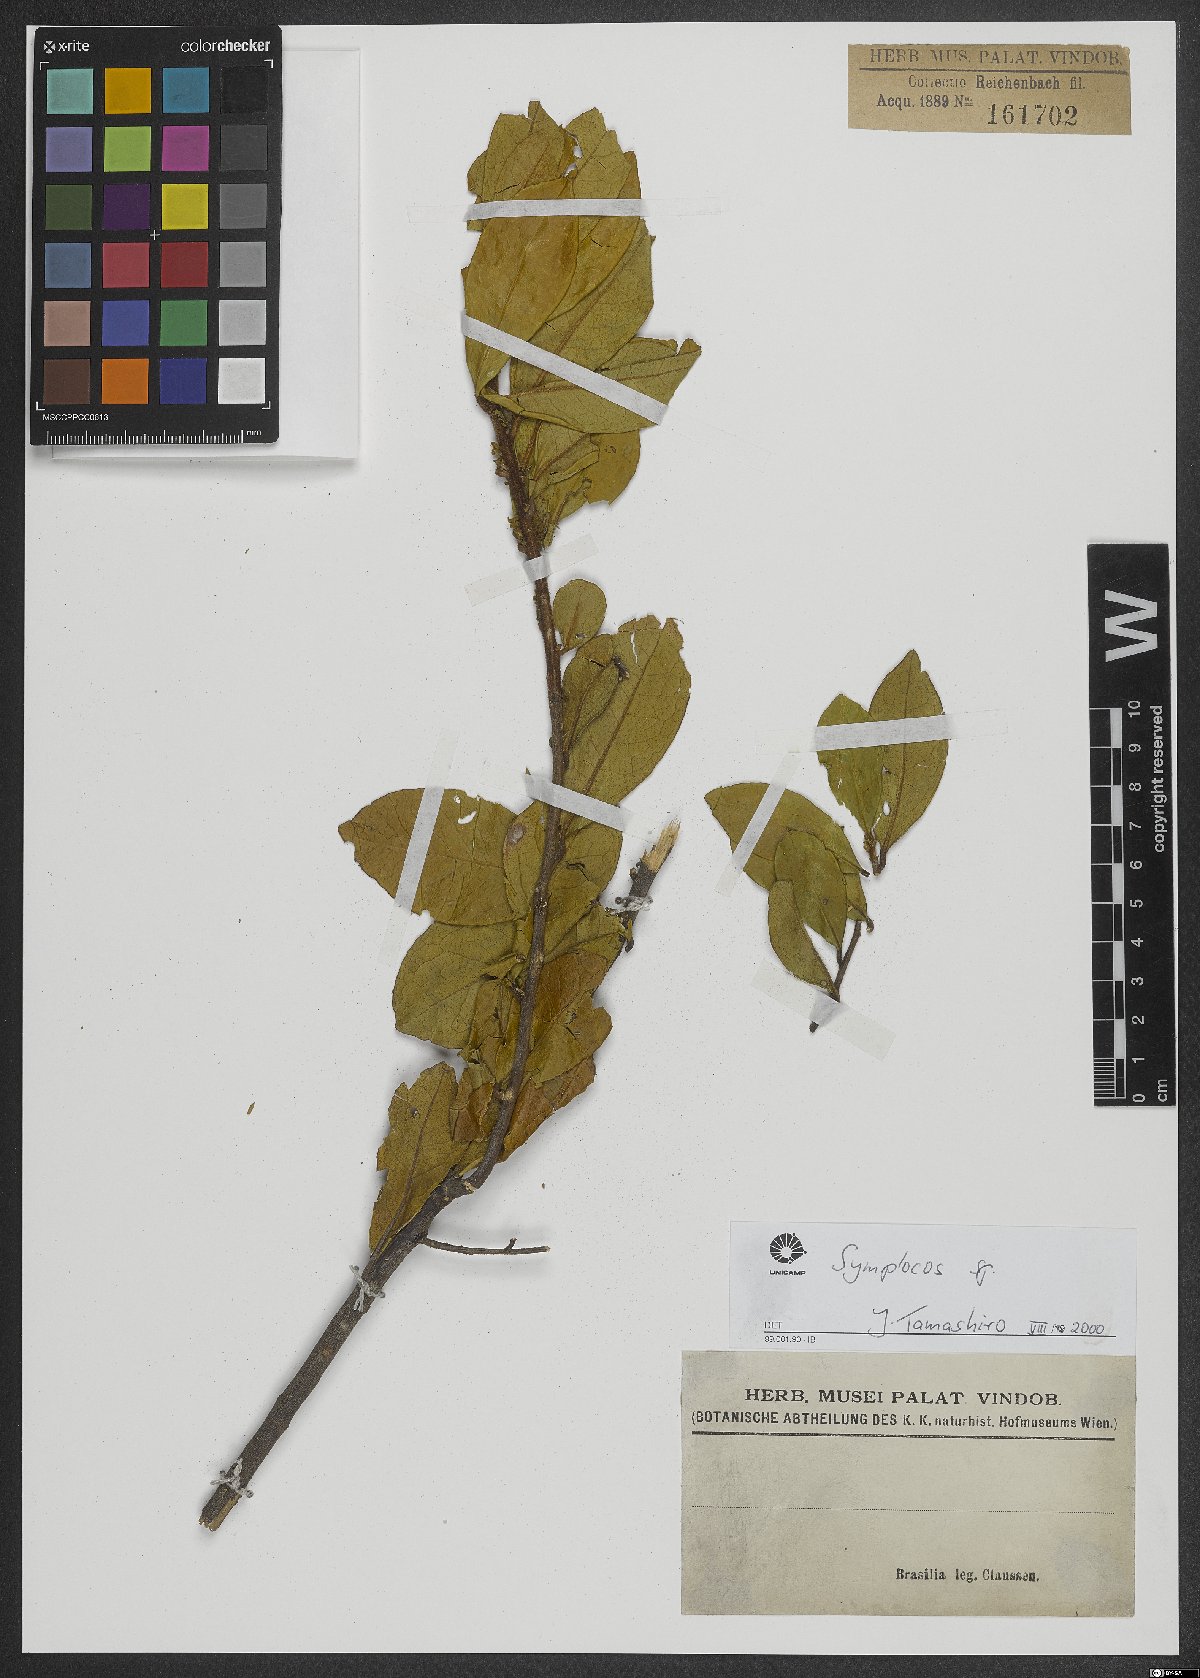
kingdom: Plantae
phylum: Tracheophyta
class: Magnoliopsida
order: Ericales
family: Symplocaceae
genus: Symplocos
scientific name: Symplocos
